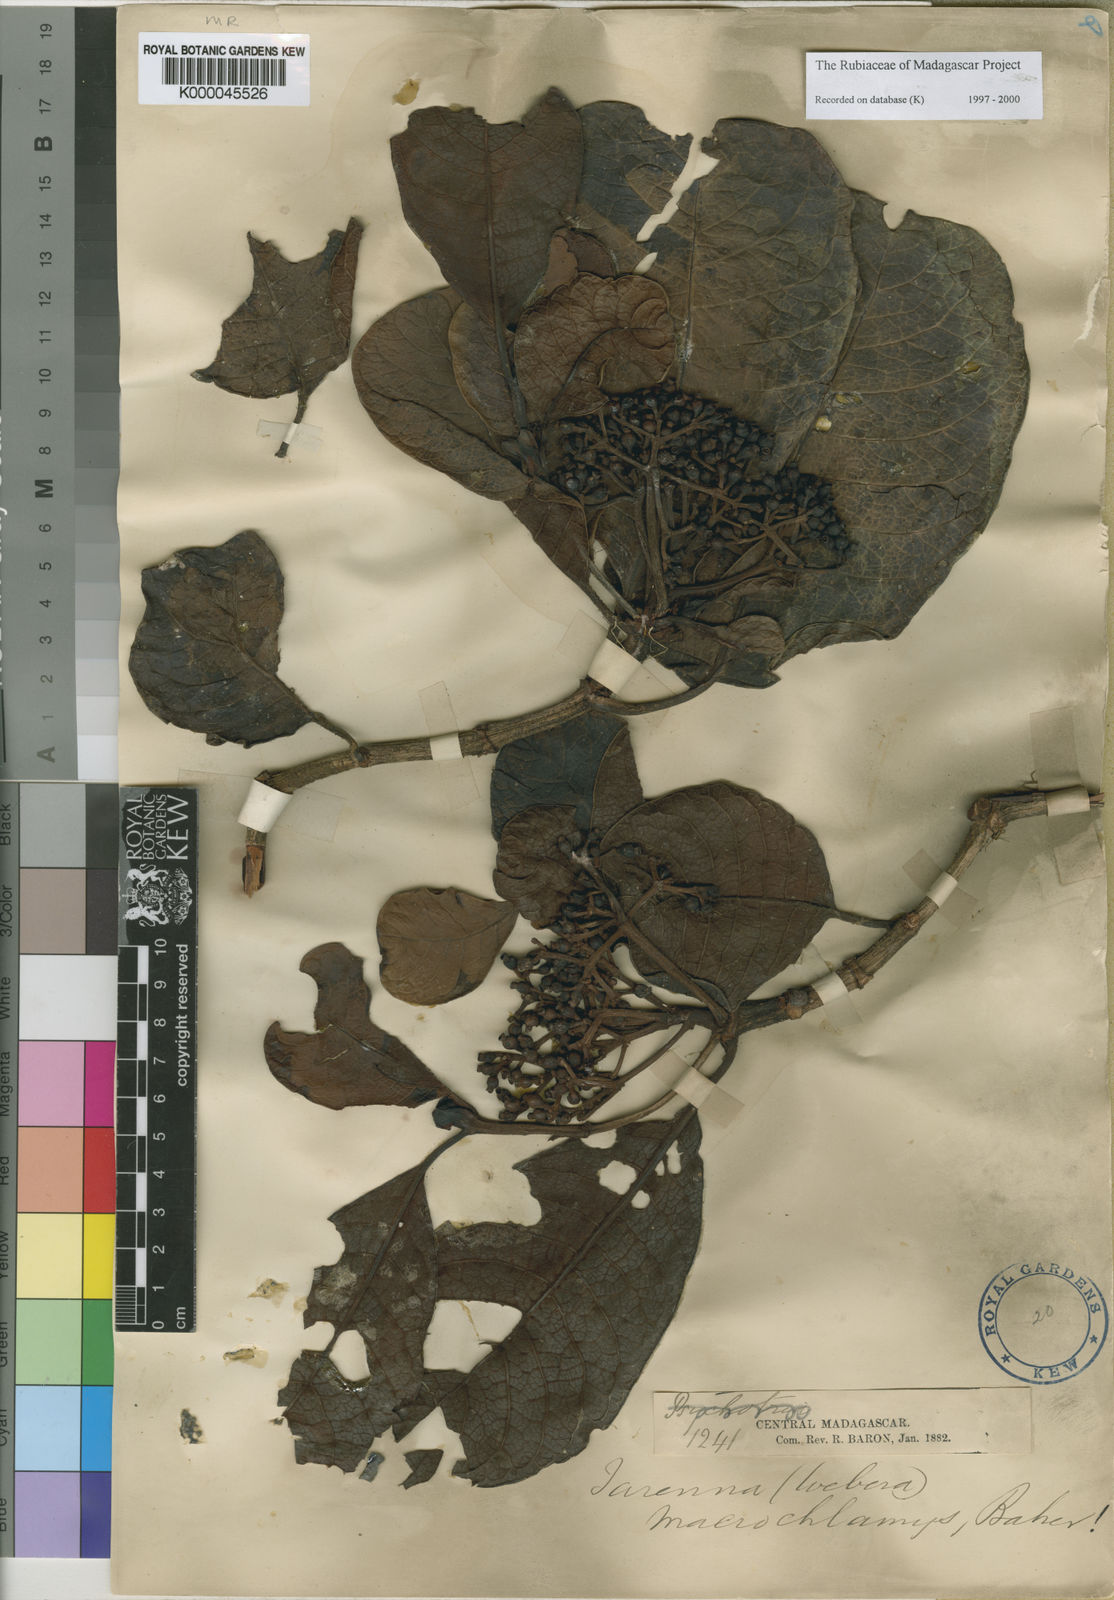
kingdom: Plantae
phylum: Tracheophyta
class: Magnoliopsida
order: Gentianales
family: Rubiaceae
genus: Psychotria
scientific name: Psychotria macrochlamys
